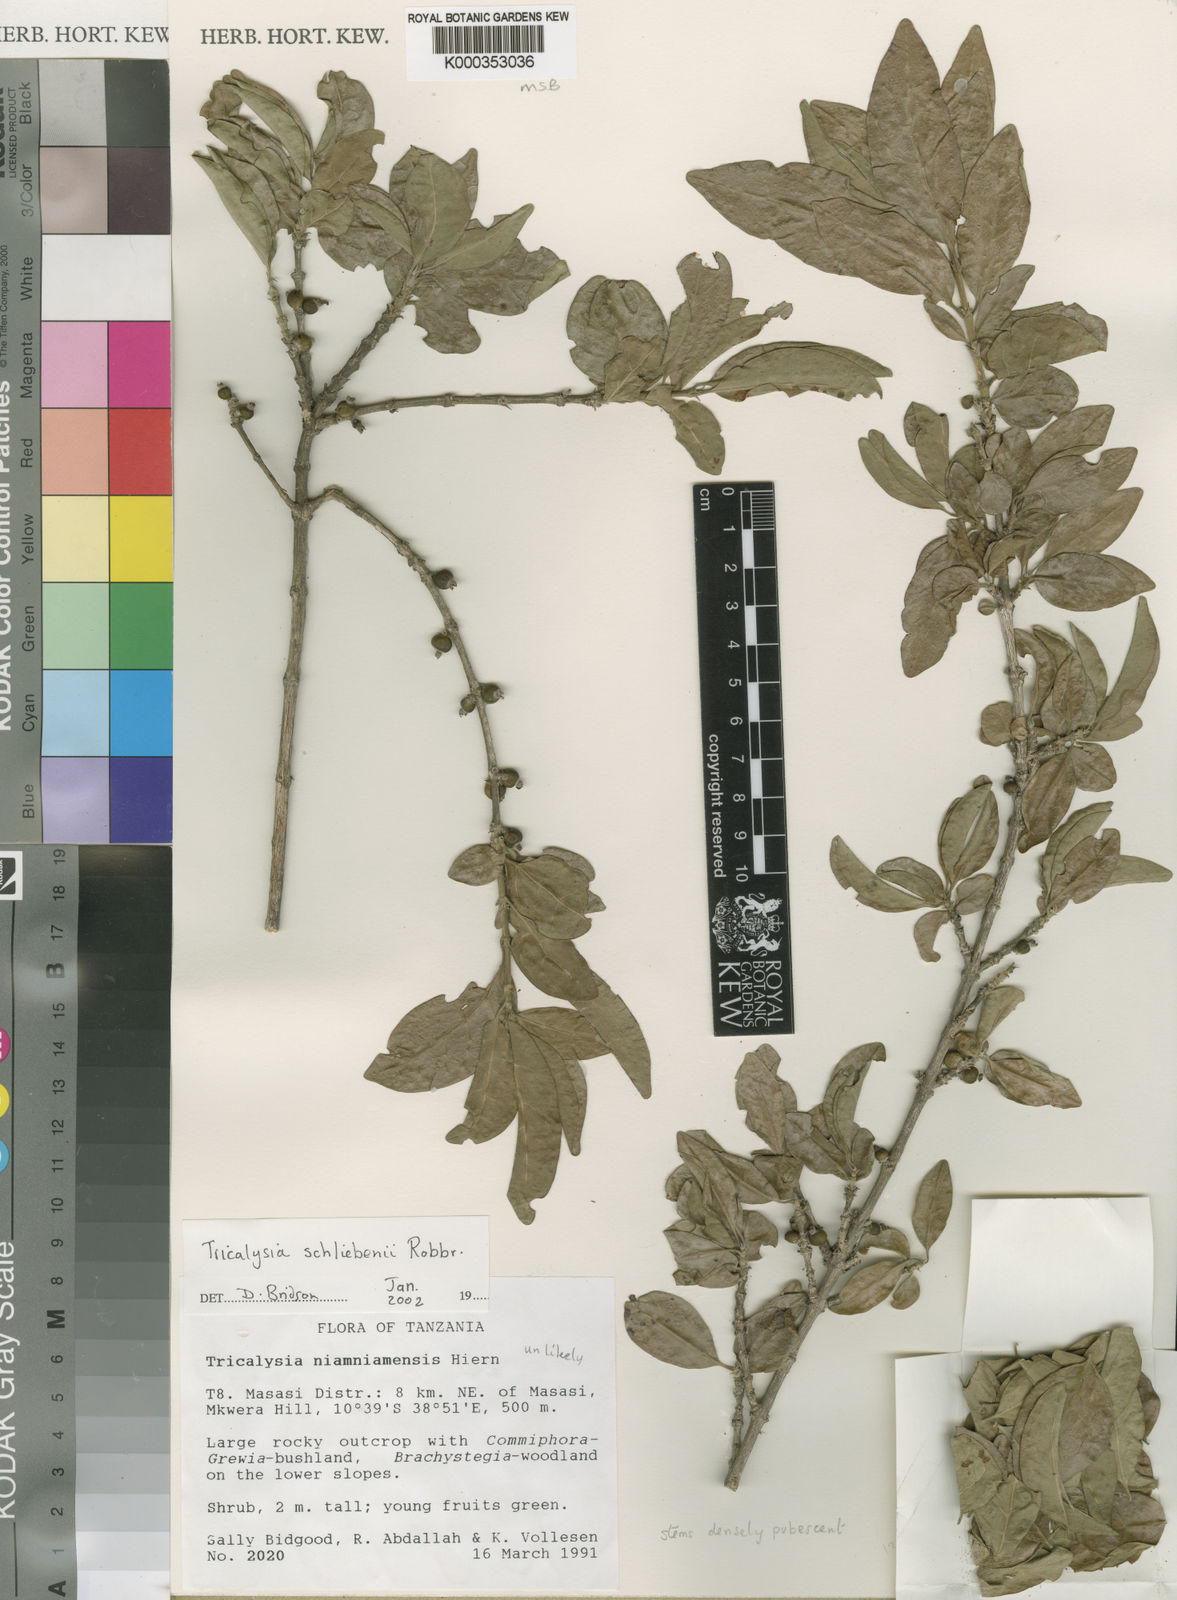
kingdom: Plantae
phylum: Tracheophyta
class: Magnoliopsida
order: Gentianales
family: Rubiaceae
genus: Tricalysia
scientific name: Tricalysia schliebenii
